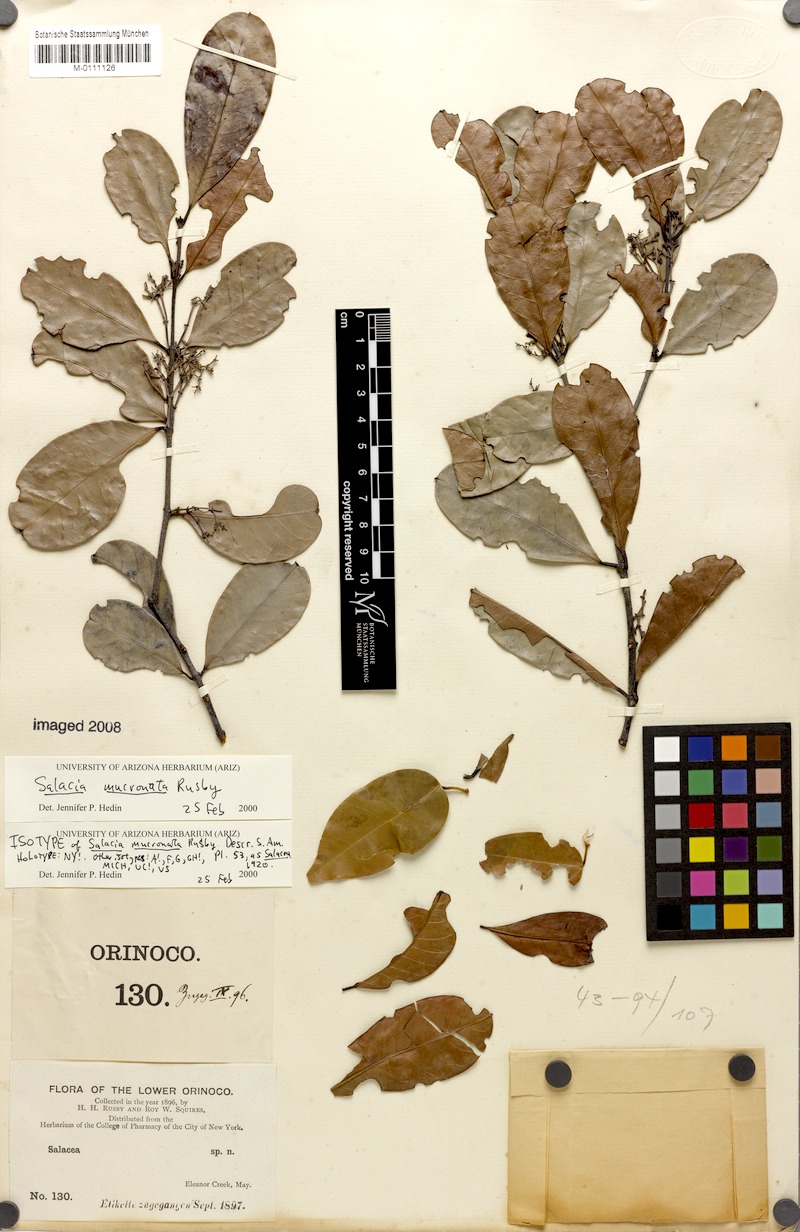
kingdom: Plantae
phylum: Tracheophyta
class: Magnoliopsida
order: Celastrales
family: Celastraceae
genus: Salacia
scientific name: Salacia multiflora
